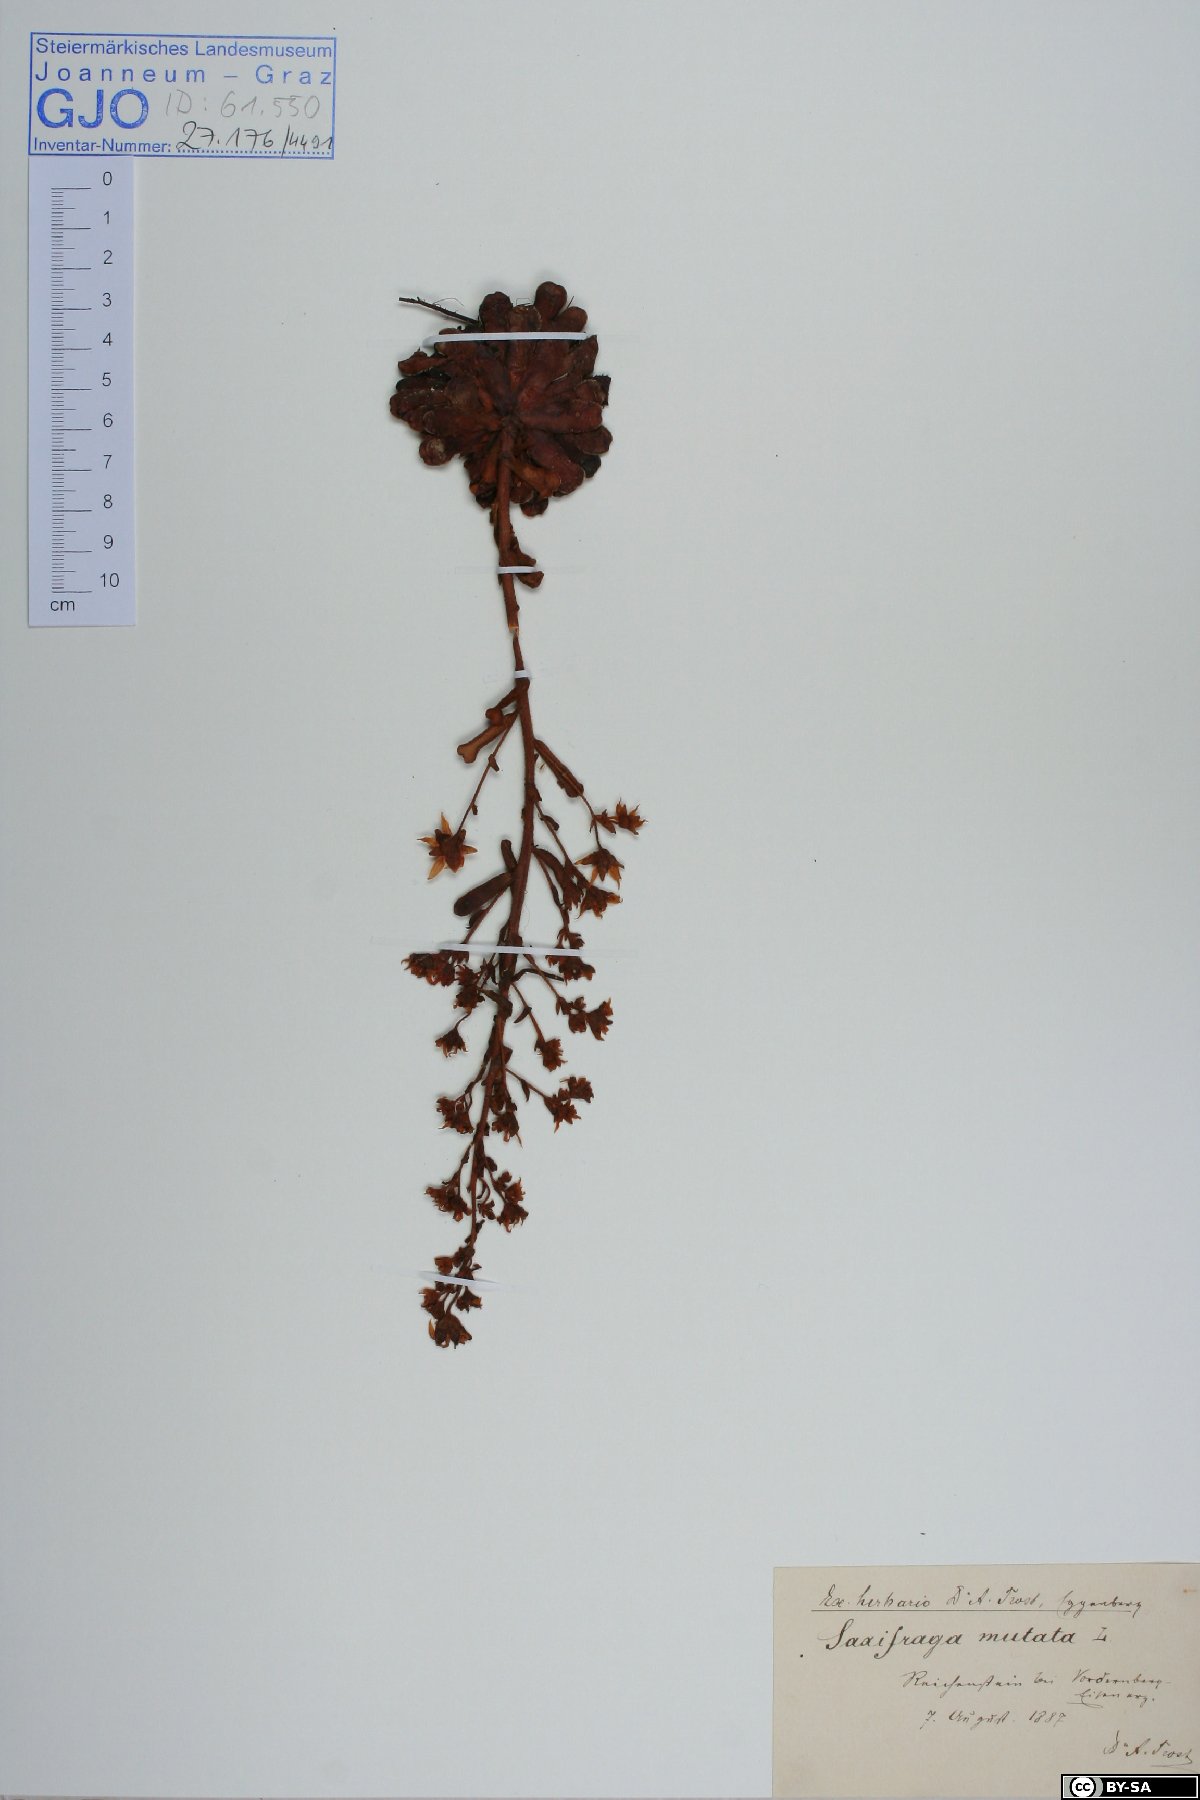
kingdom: Plantae
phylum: Tracheophyta
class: Magnoliopsida
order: Saxifragales
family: Saxifragaceae
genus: Saxifraga
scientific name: Saxifraga mutata
